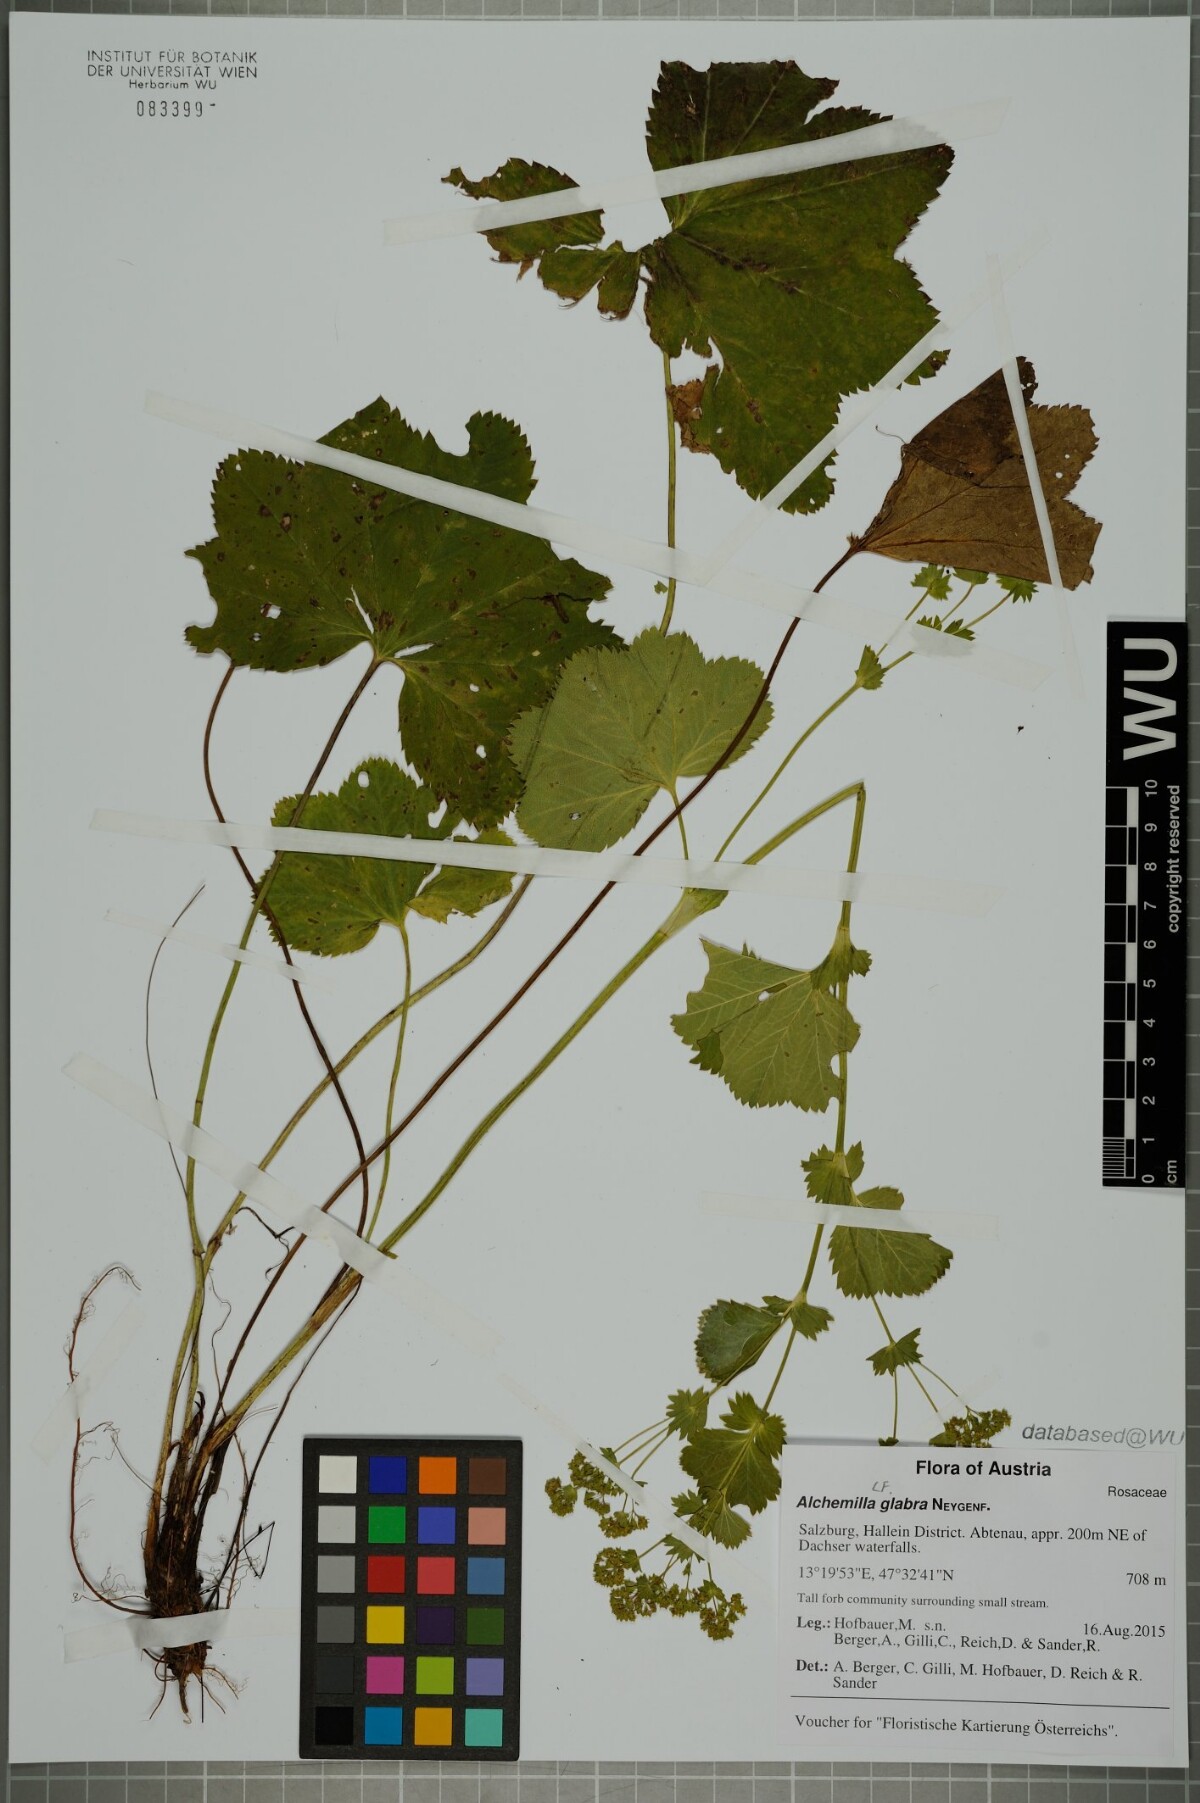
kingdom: Plantae
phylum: Tracheophyta
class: Magnoliopsida
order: Rosales
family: Rosaceae
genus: Alchemilla
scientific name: Alchemilla glabra
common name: Smooth lady's-mantle
